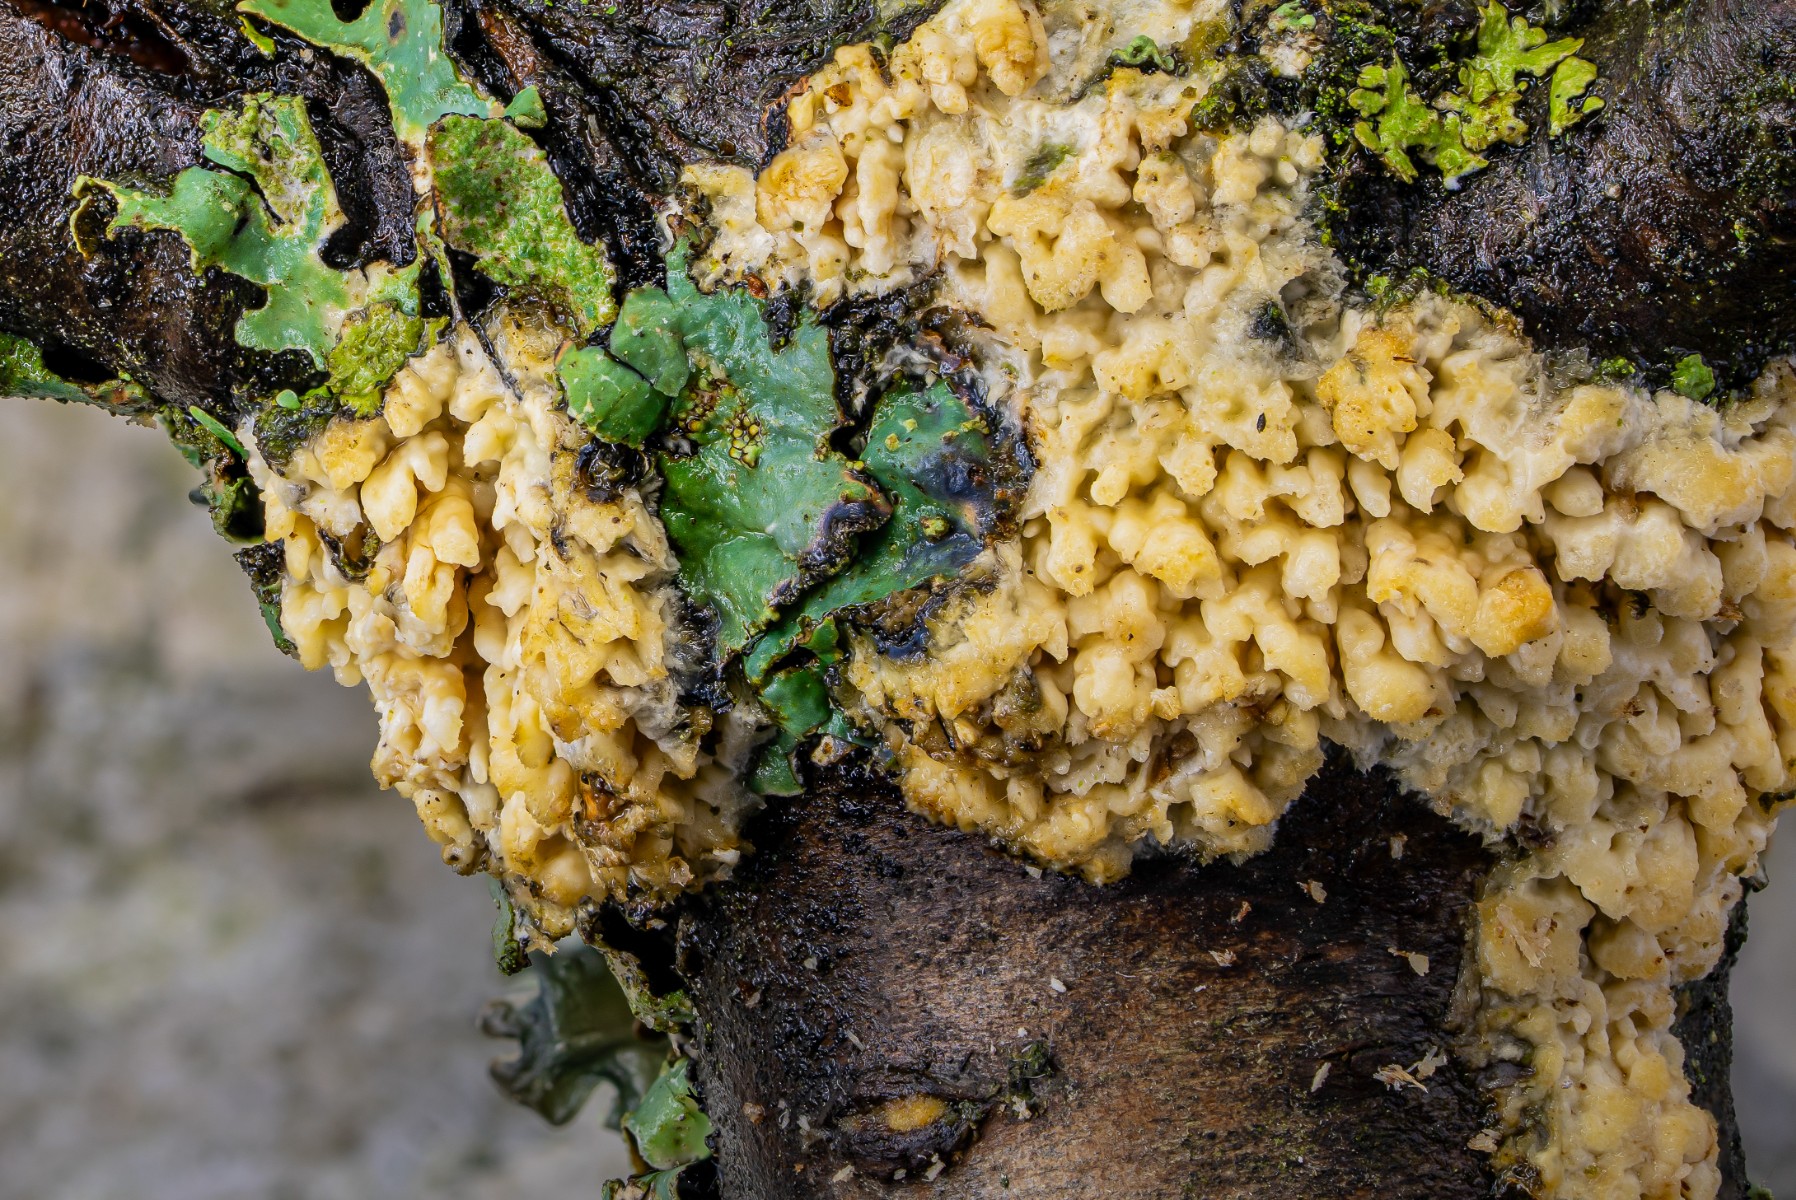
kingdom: Fungi
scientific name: Fungi
